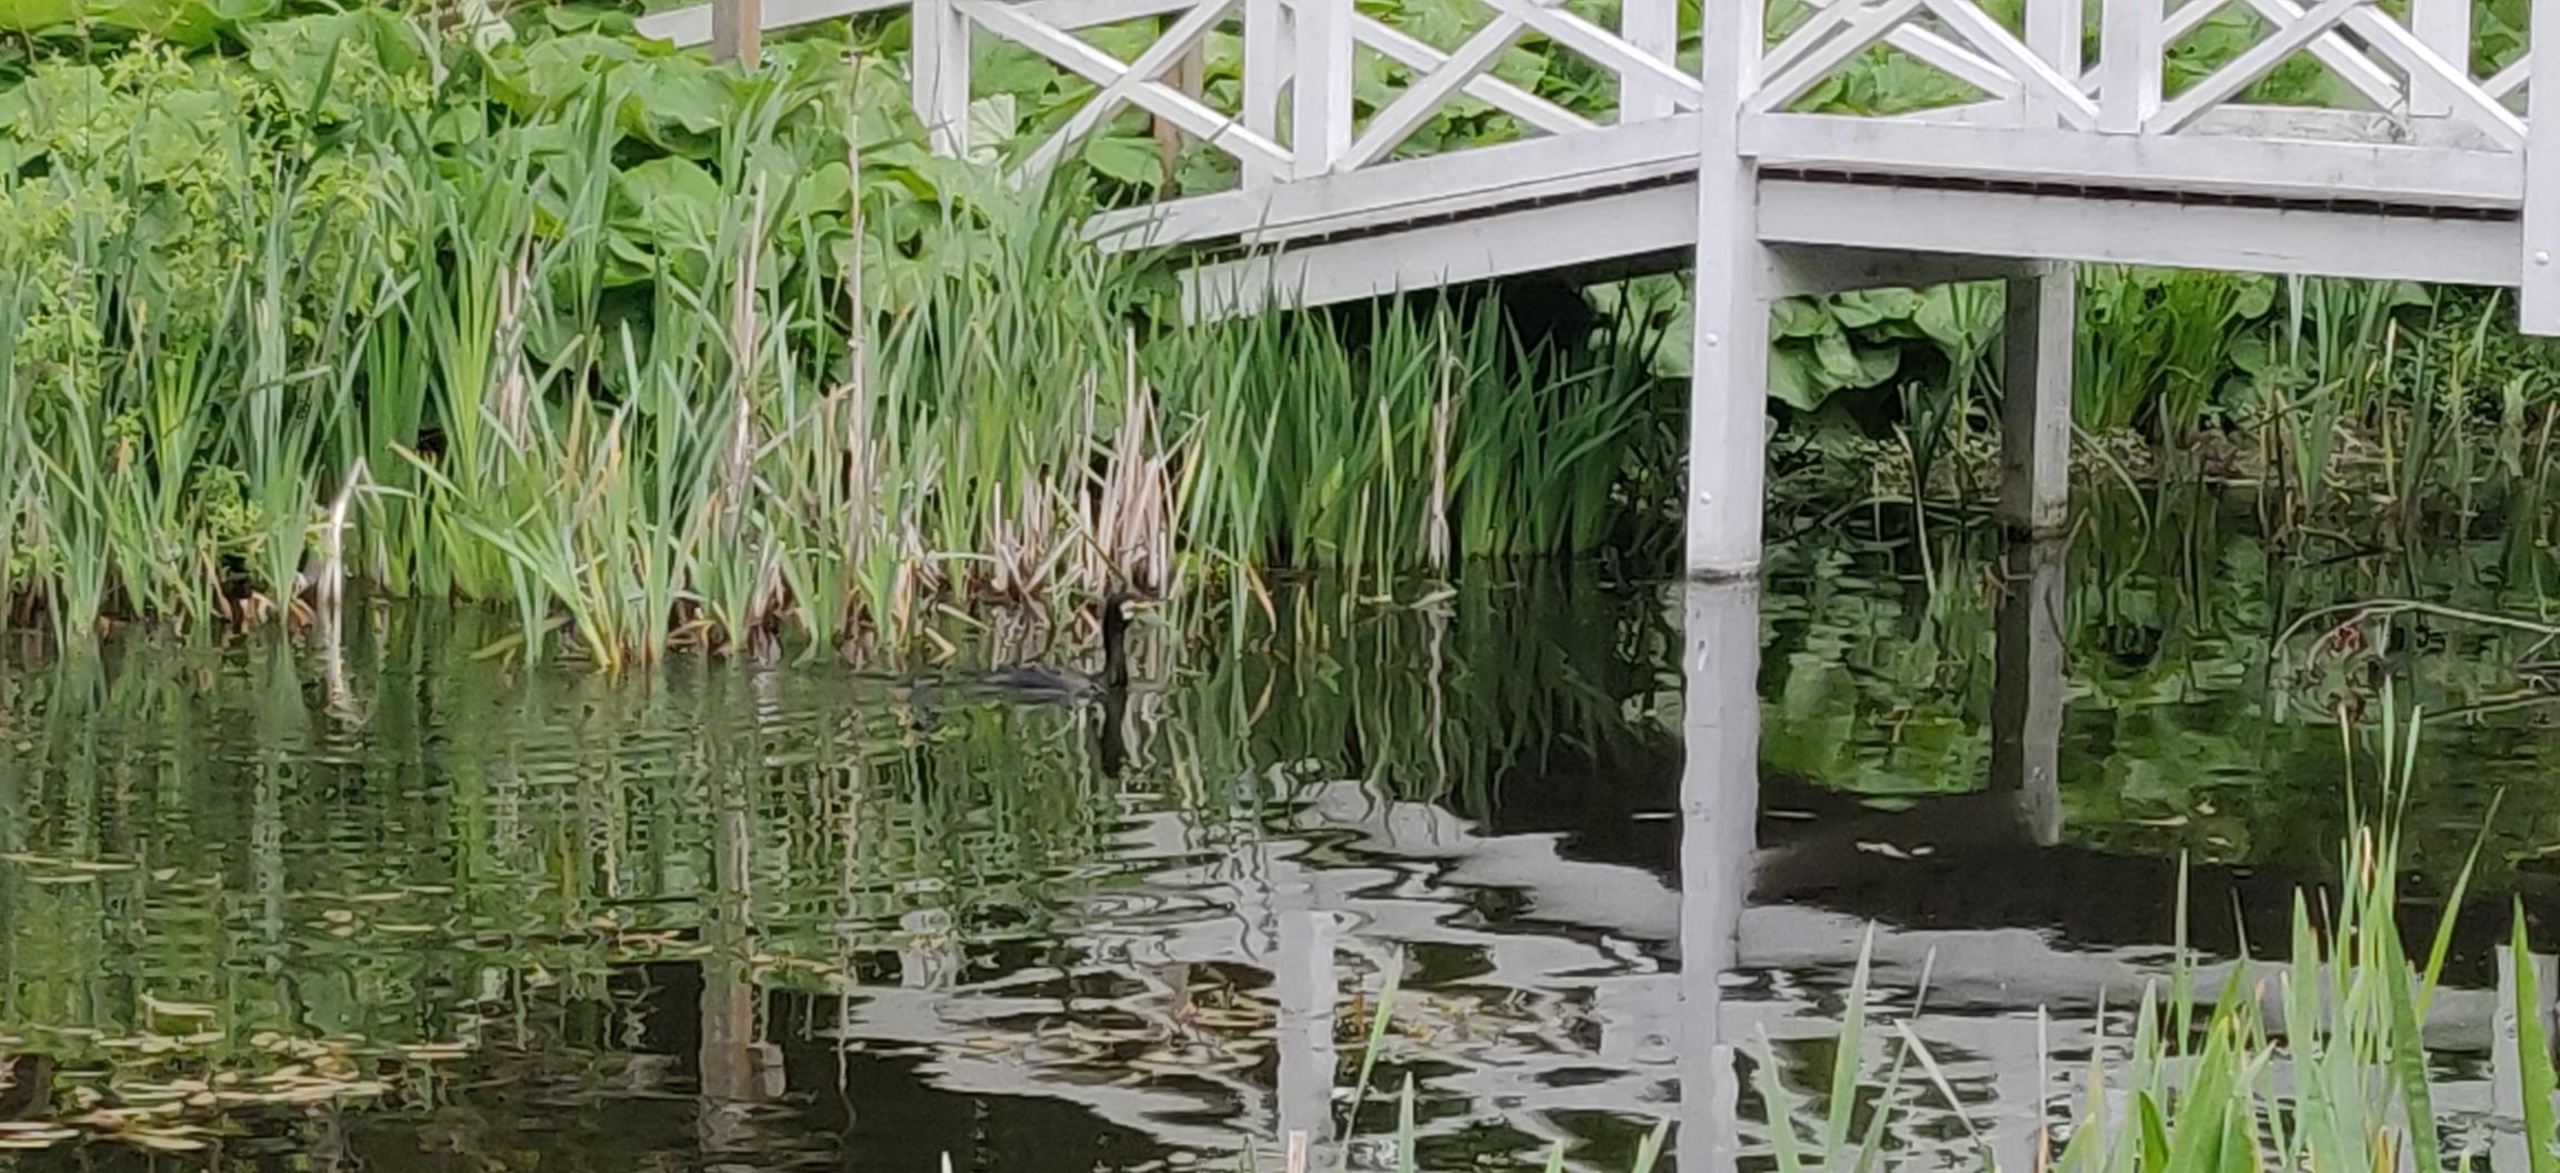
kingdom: Animalia
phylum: Chordata
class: Aves
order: Suliformes
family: Phalacrocoracidae
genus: Phalacrocorax
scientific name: Phalacrocorax carbo
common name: Skarv
